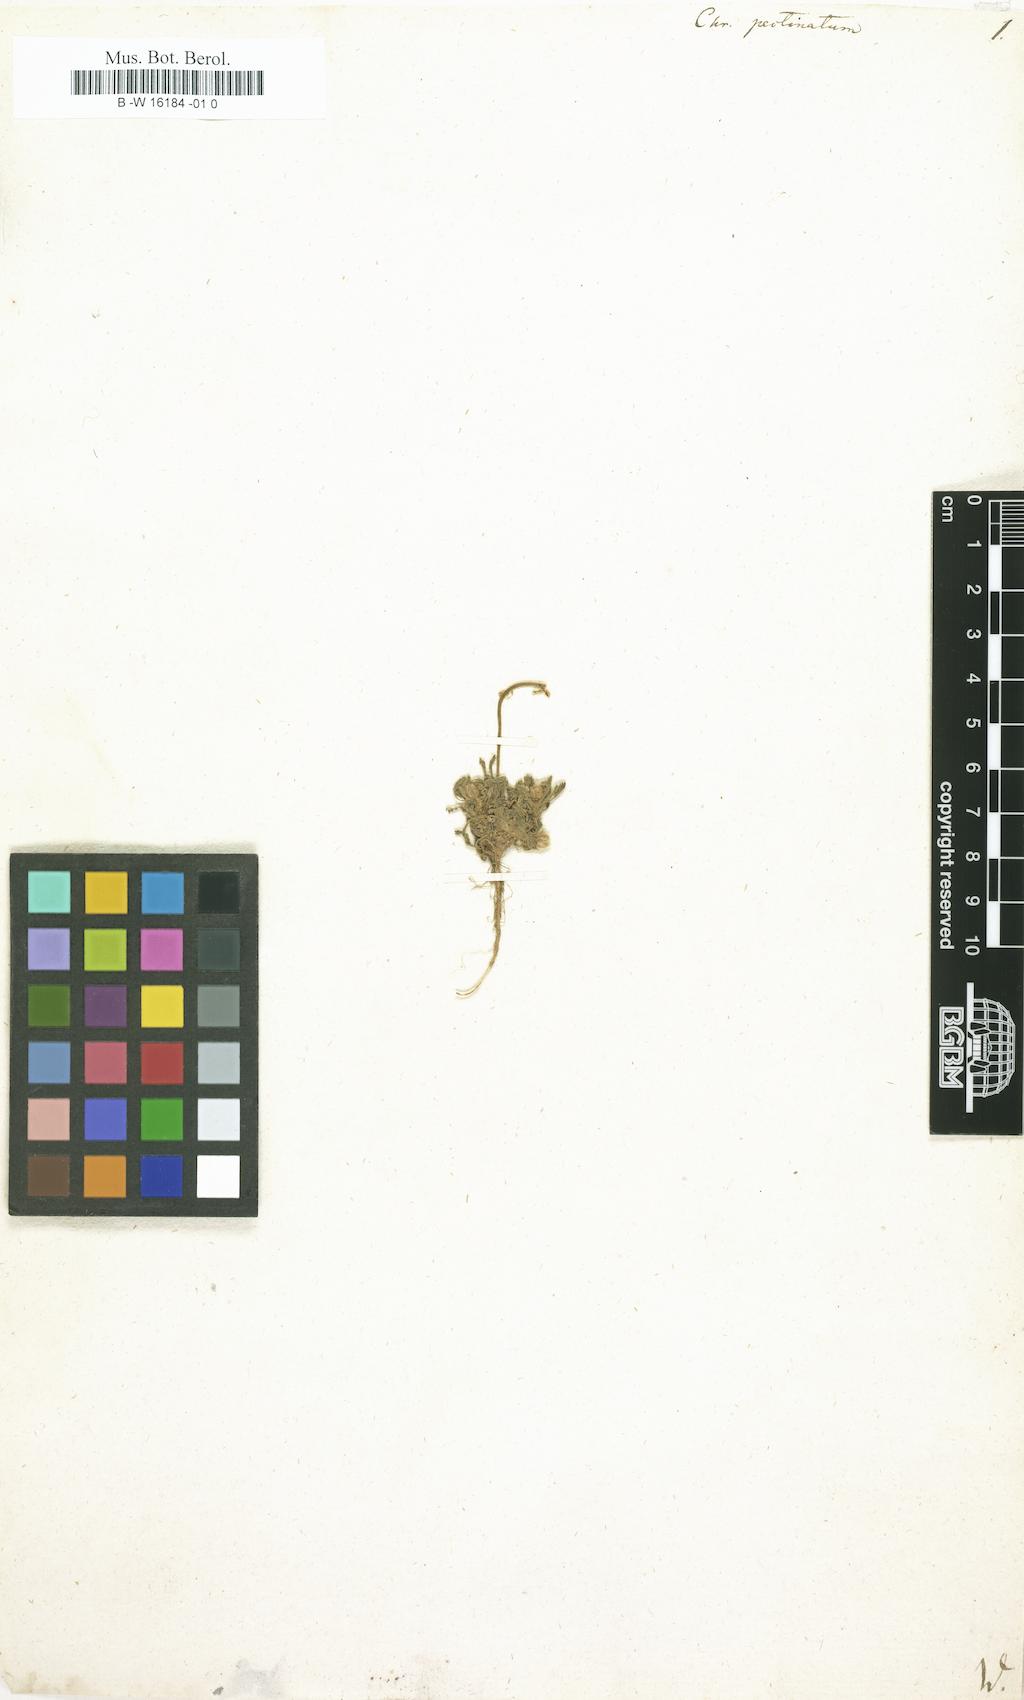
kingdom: Plantae
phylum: Tracheophyta
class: Magnoliopsida
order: Asterales
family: Asteraceae
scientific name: Asteraceae
